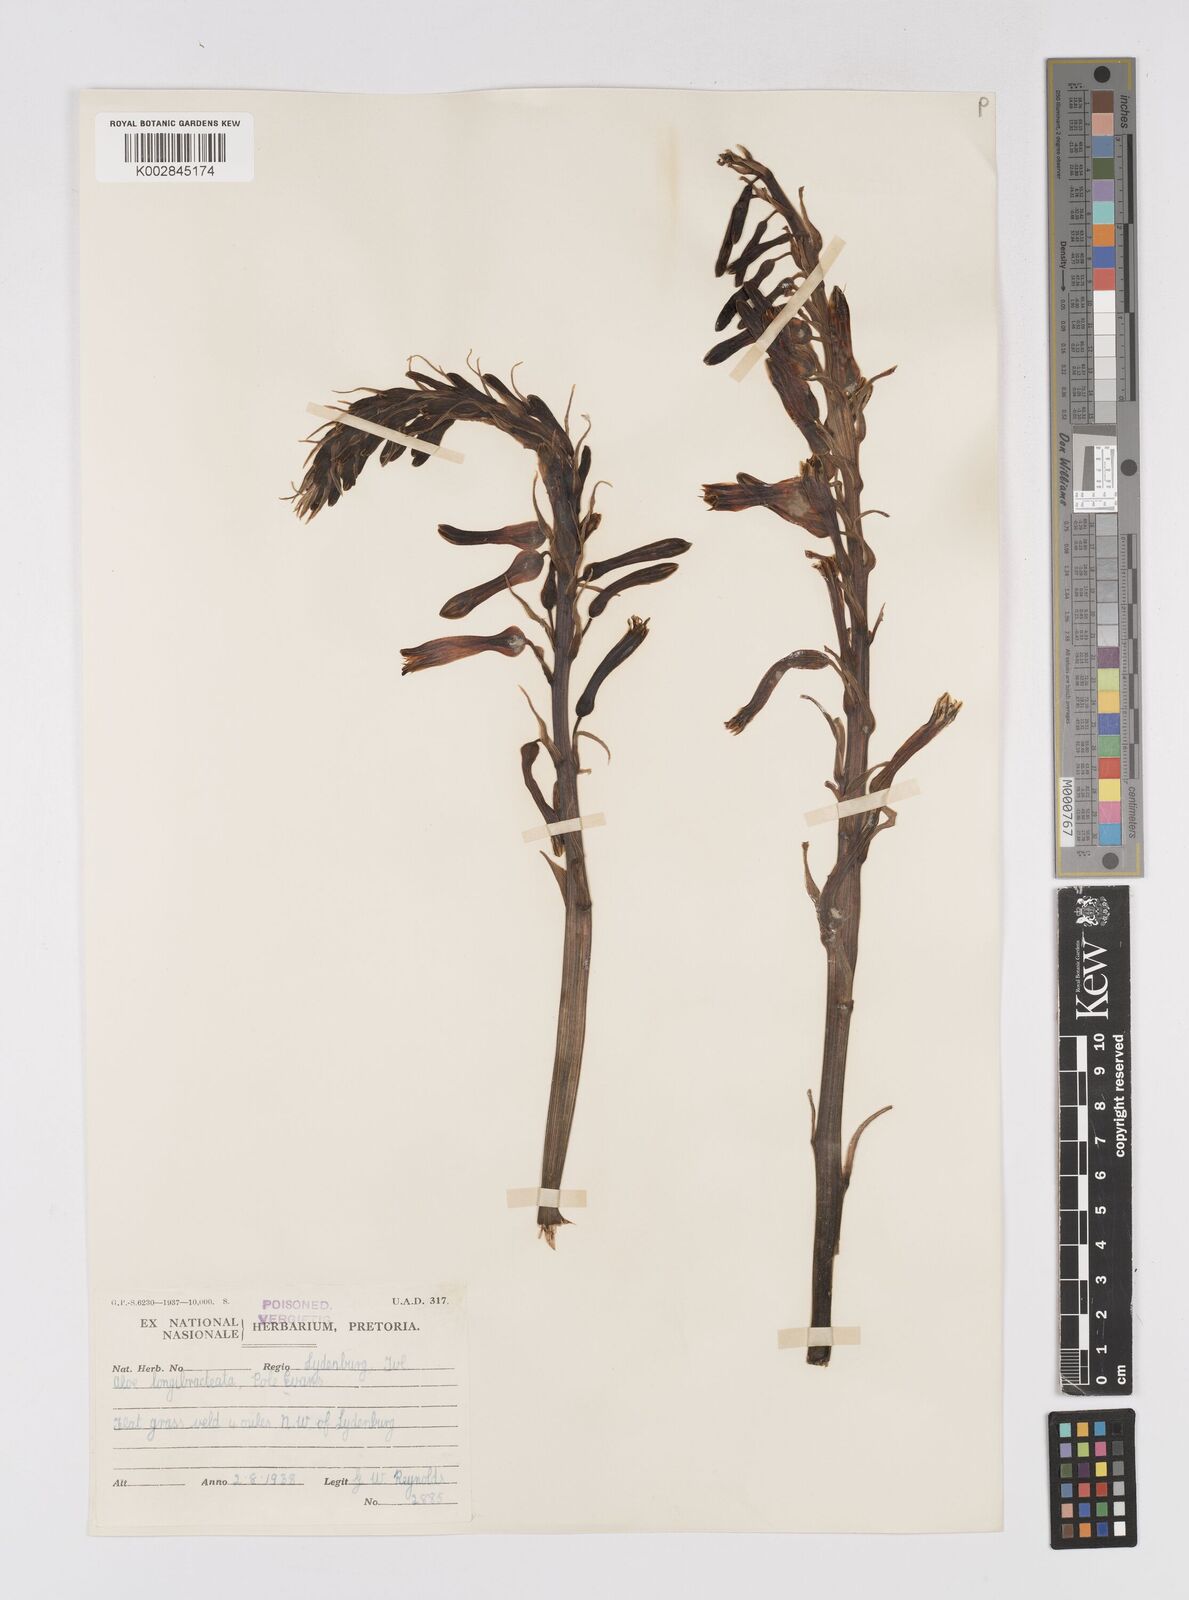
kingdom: Plantae
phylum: Tracheophyta
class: Liliopsida
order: Asparagales
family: Asphodelaceae
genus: Aloe
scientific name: Aloe longibracteata
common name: Limpopo spotted aloe
